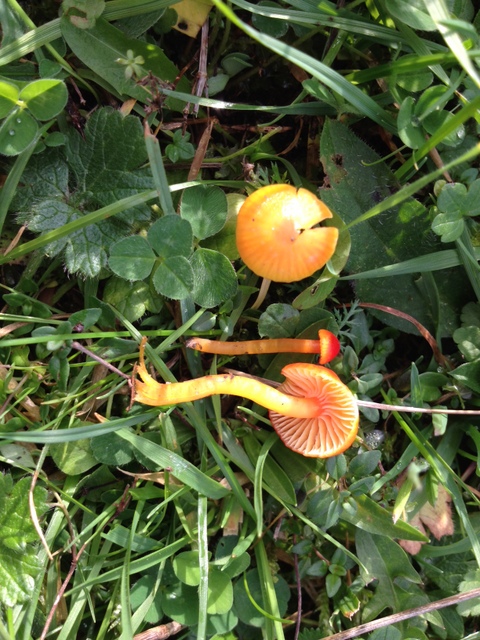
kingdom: Fungi
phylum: Basidiomycota
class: Agaricomycetes
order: Agaricales
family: Hygrophoraceae
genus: Hygrocybe
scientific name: Hygrocybe insipida
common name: liden vokshat
